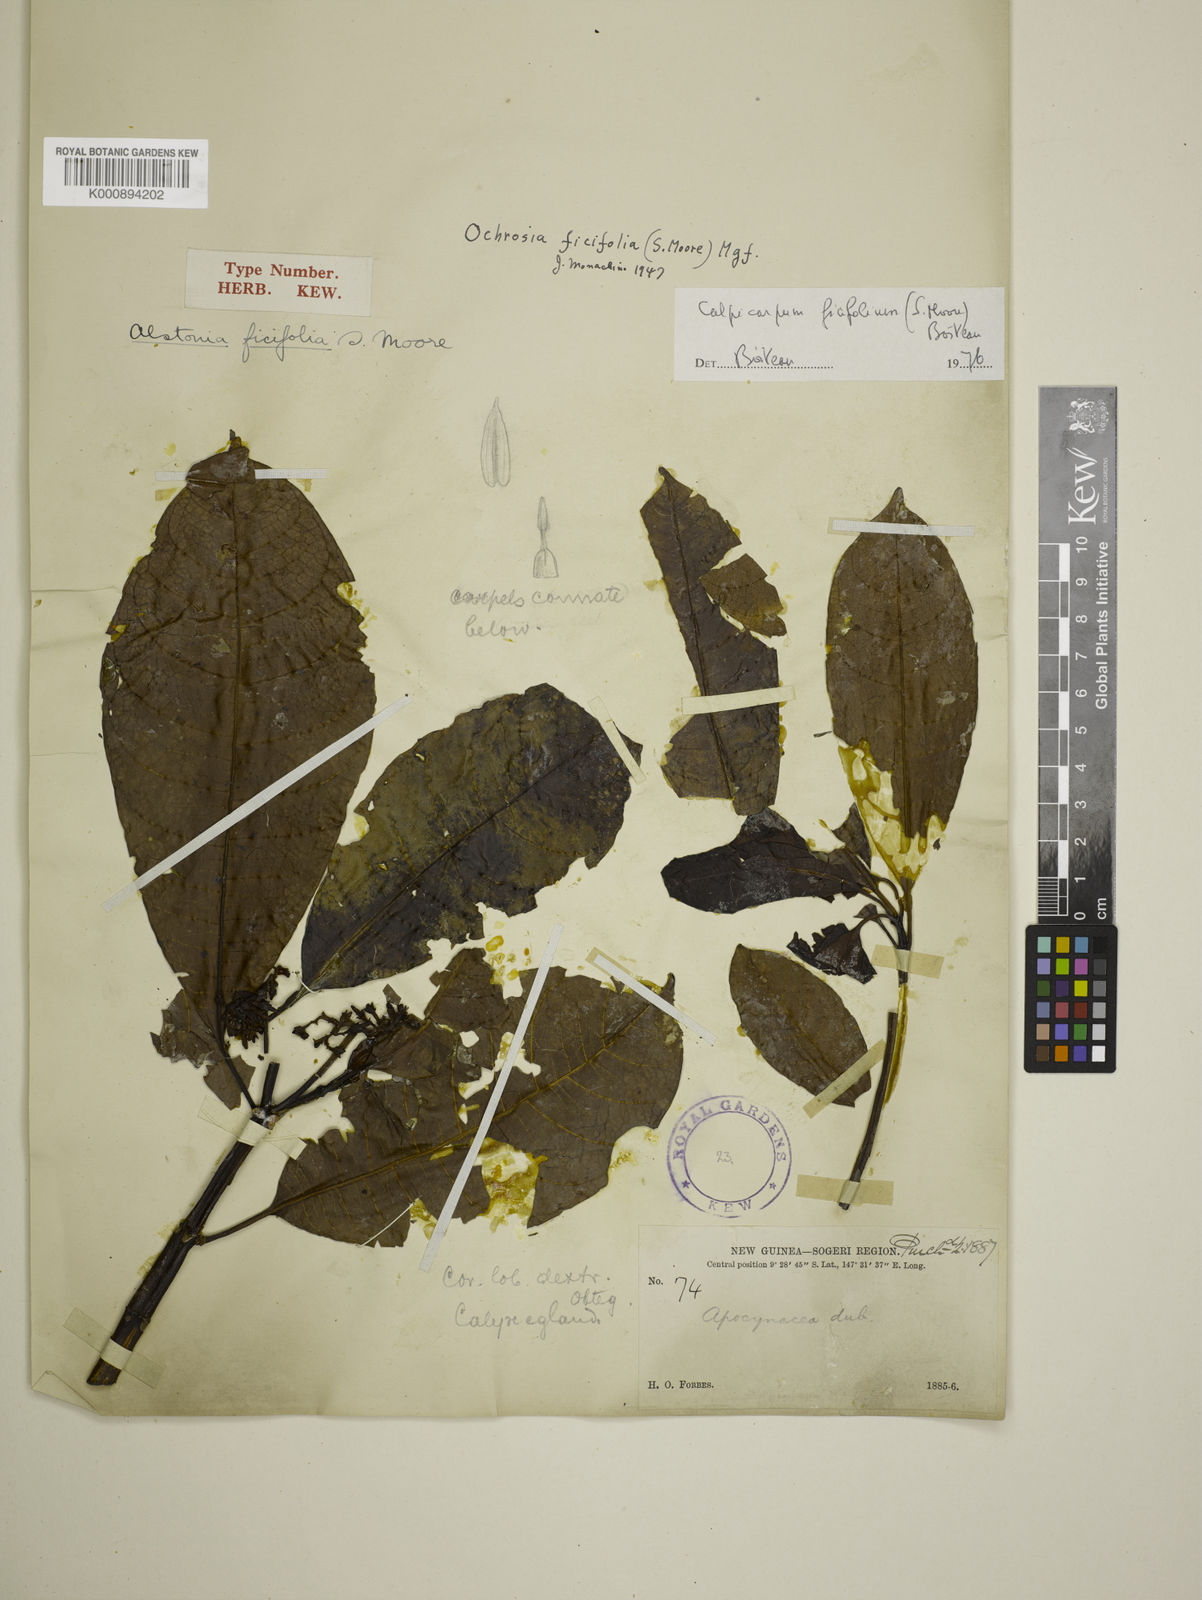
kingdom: Plantae
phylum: Tracheophyta
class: Magnoliopsida
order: Gentianales
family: Apocynaceae
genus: Ochrosia
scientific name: Ochrosia ficifolia
